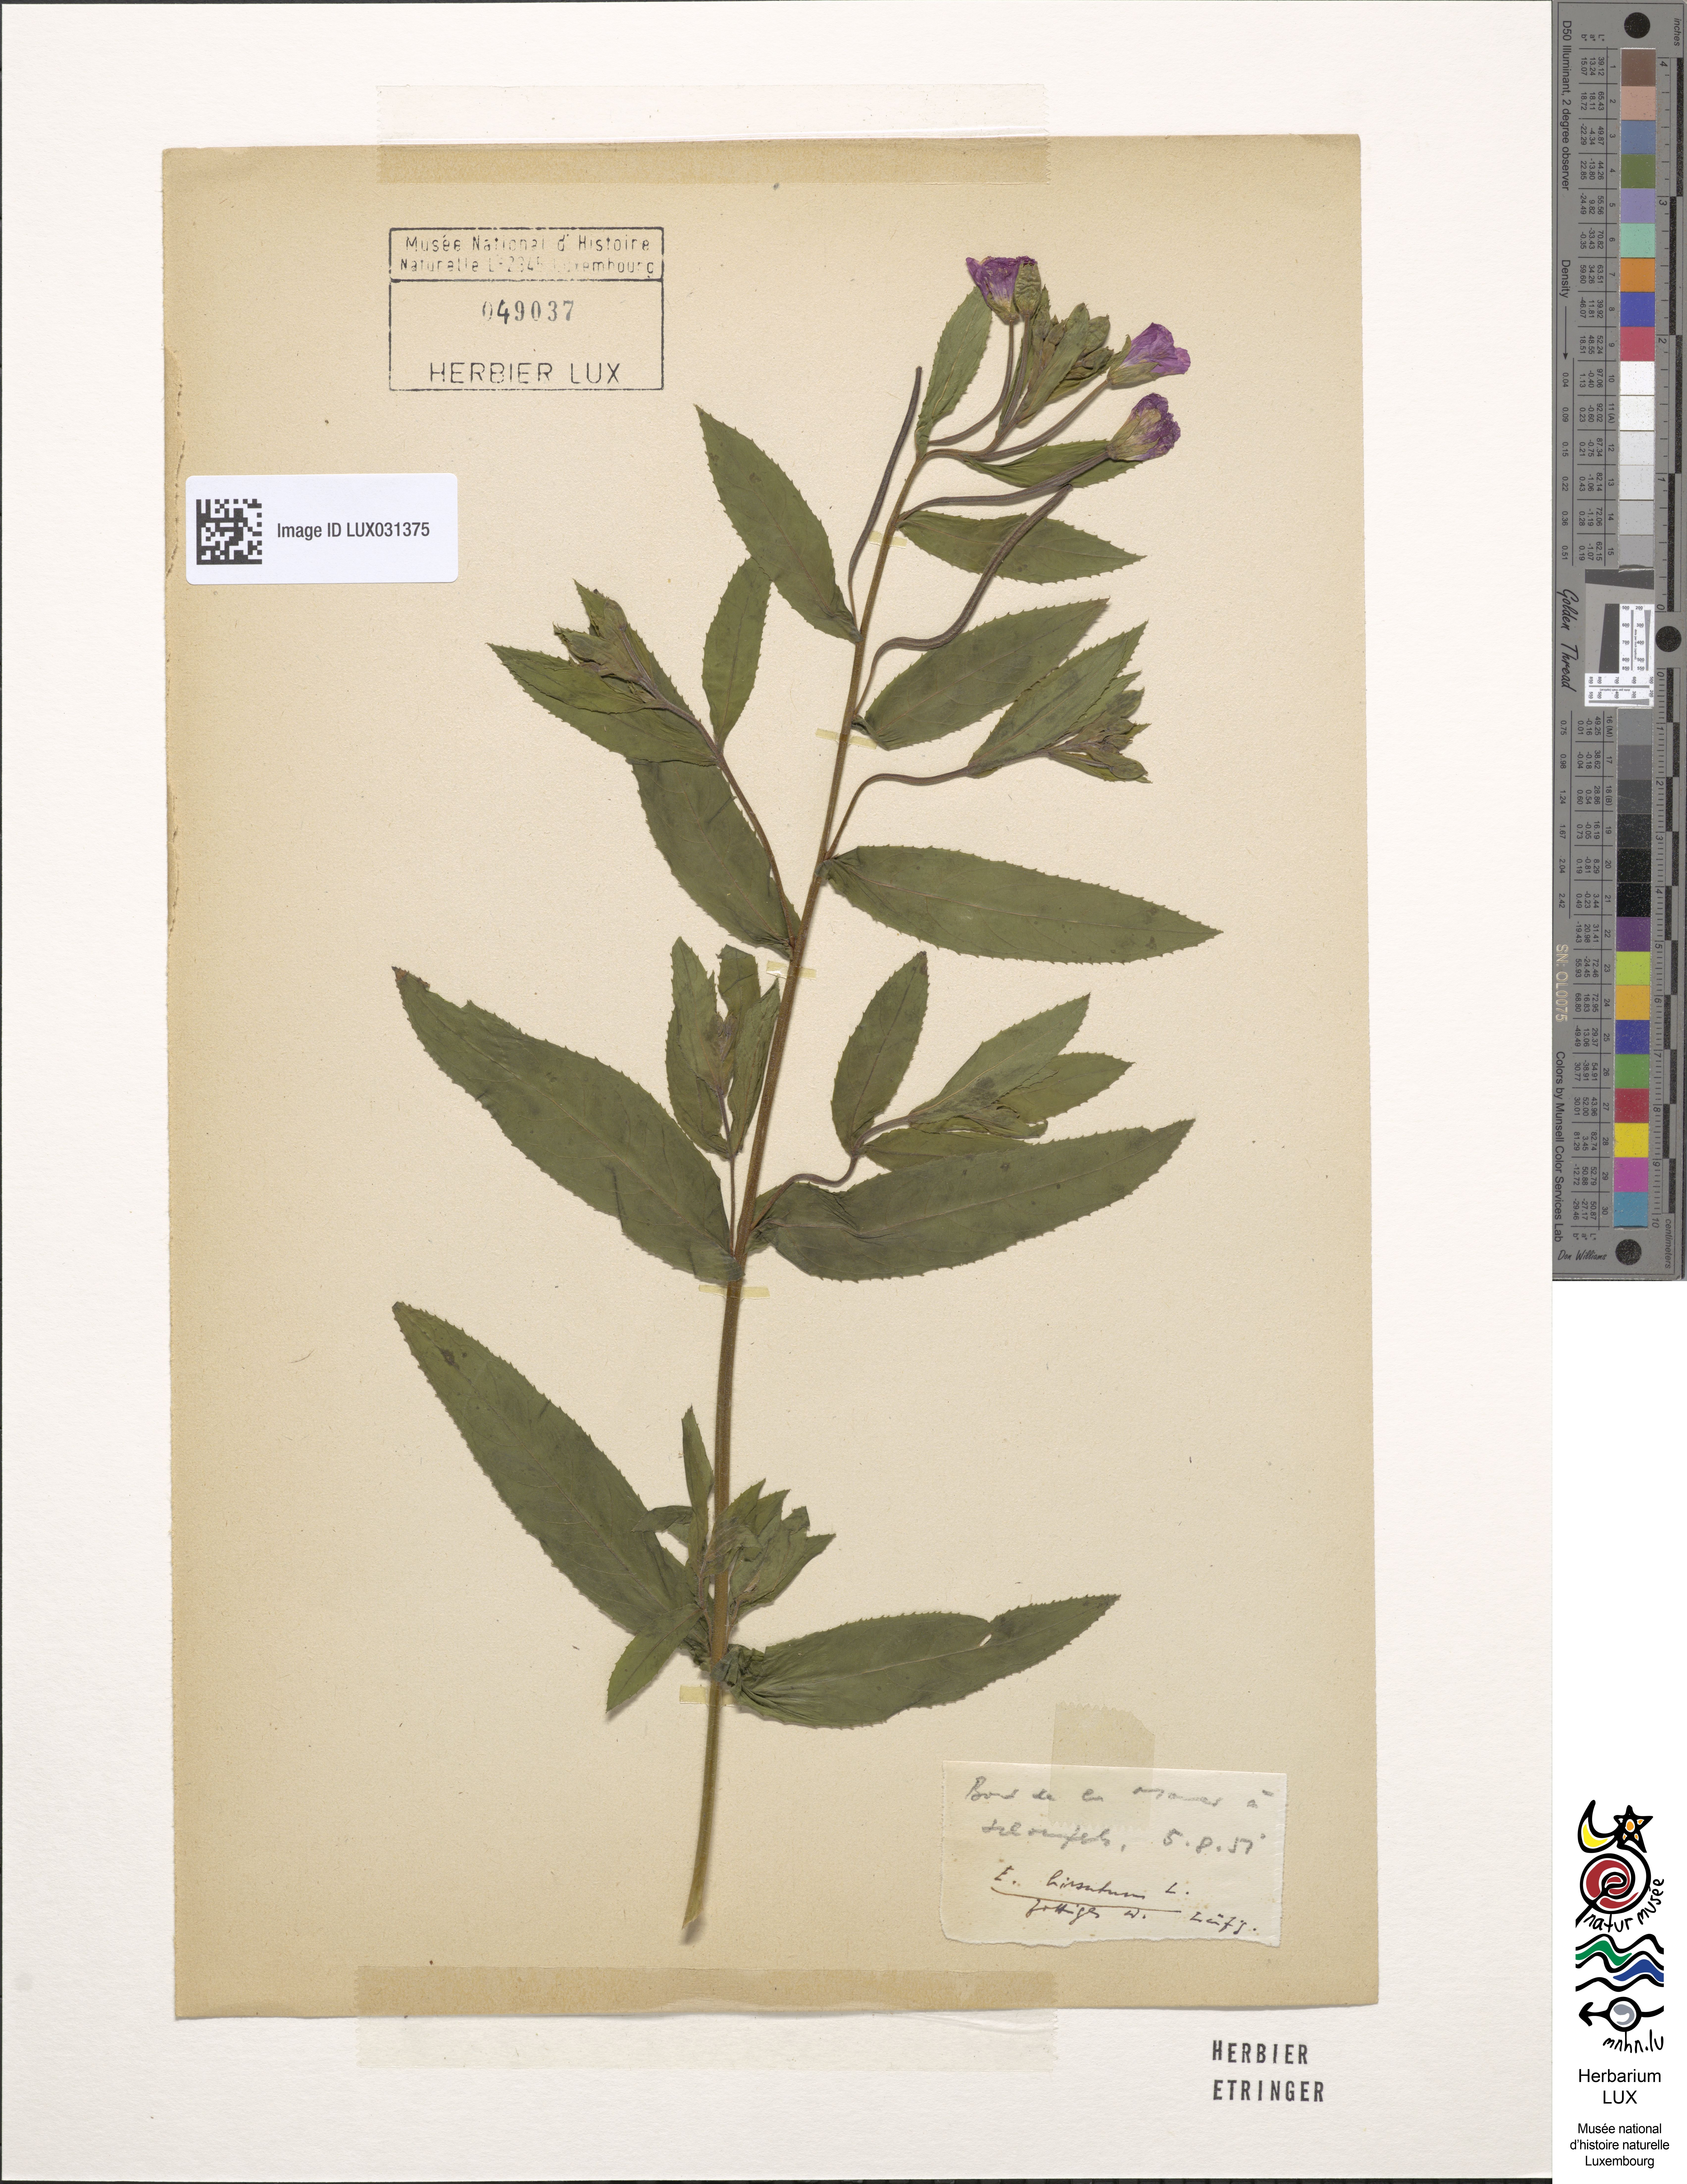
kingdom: Plantae
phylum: Tracheophyta
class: Magnoliopsida
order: Myrtales
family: Onagraceae
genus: Epilobium
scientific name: Epilobium hirsutum
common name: Great willowherb
